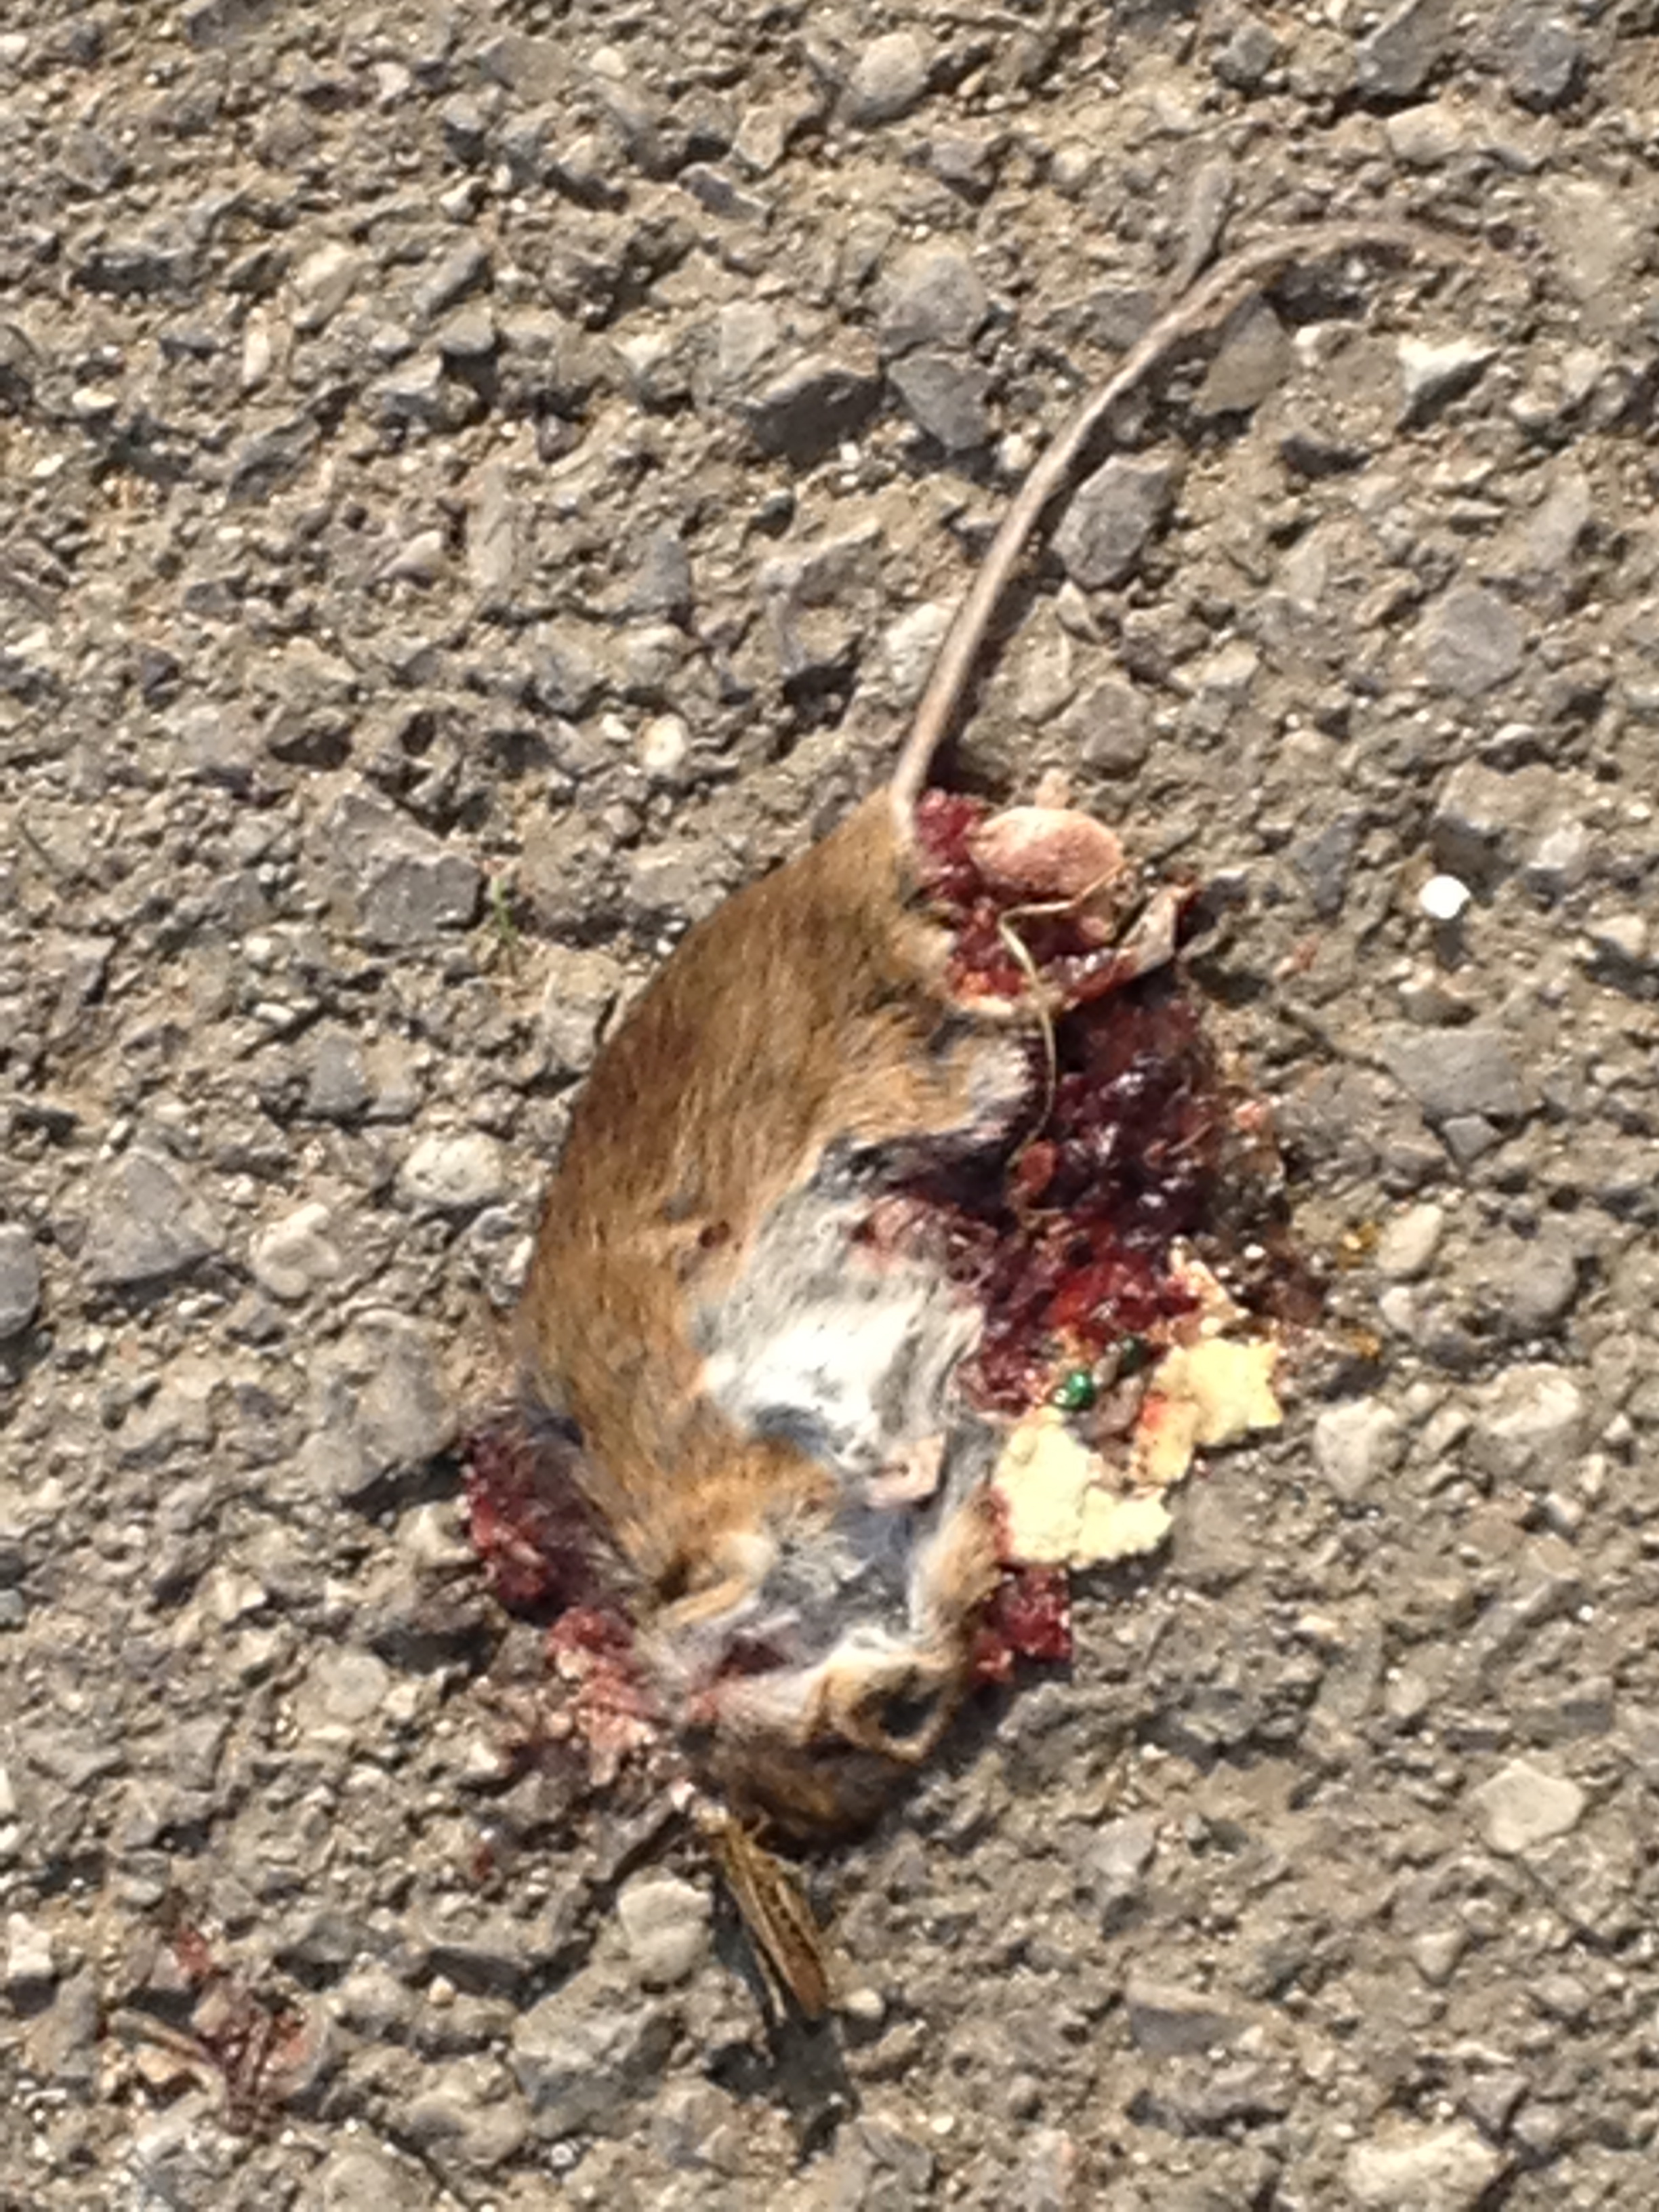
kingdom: Animalia
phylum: Chordata
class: Mammalia
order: Rodentia
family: Muridae
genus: Apodemus
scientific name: Apodemus
